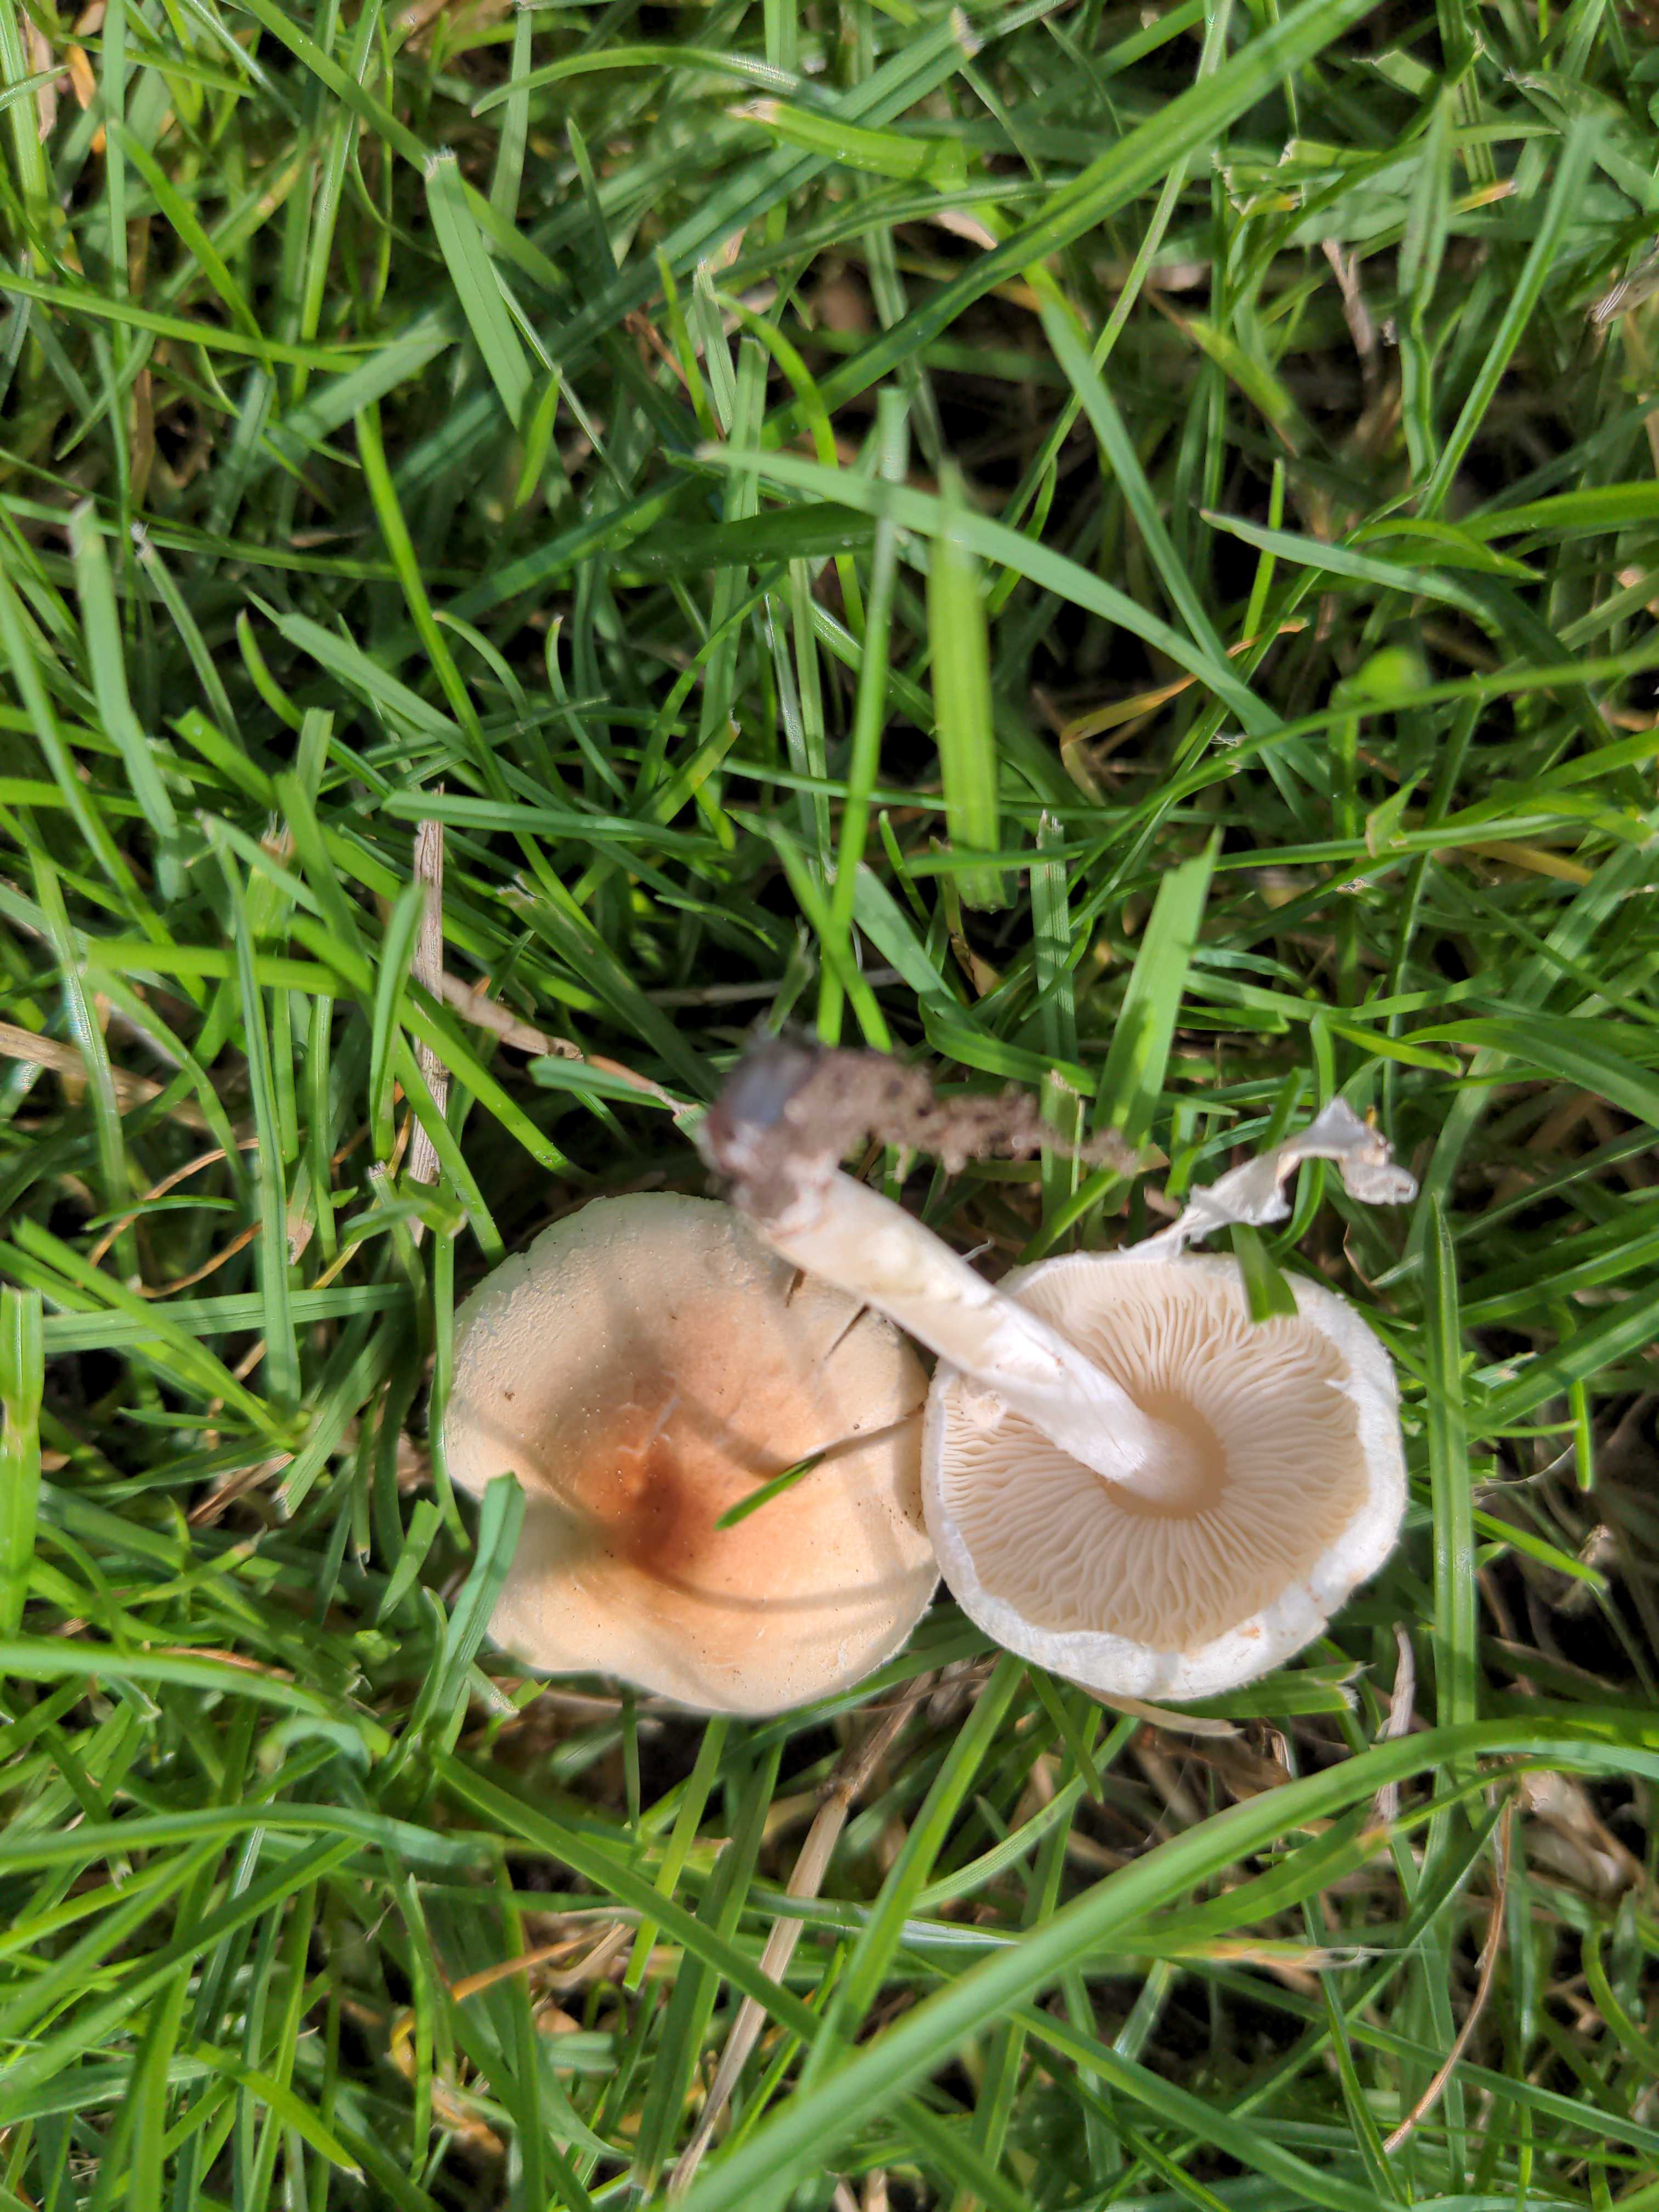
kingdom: Fungi
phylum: Basidiomycota
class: Agaricomycetes
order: Agaricales
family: Agaricaceae
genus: Lepiota
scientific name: Lepiota cristata
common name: stinkende parasolhat
